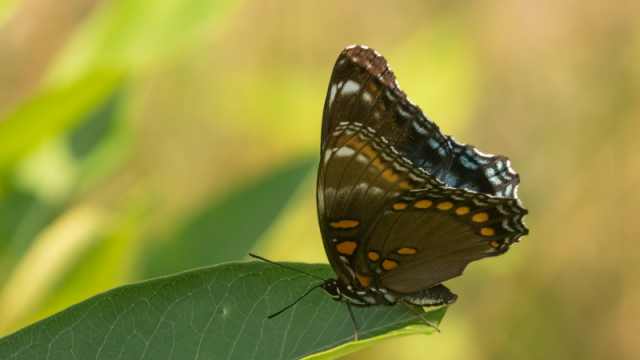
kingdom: Animalia
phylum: Arthropoda
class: Insecta
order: Lepidoptera
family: Nymphalidae
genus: Limenitis
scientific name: Limenitis arthemis
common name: Red-spotted Admiral
